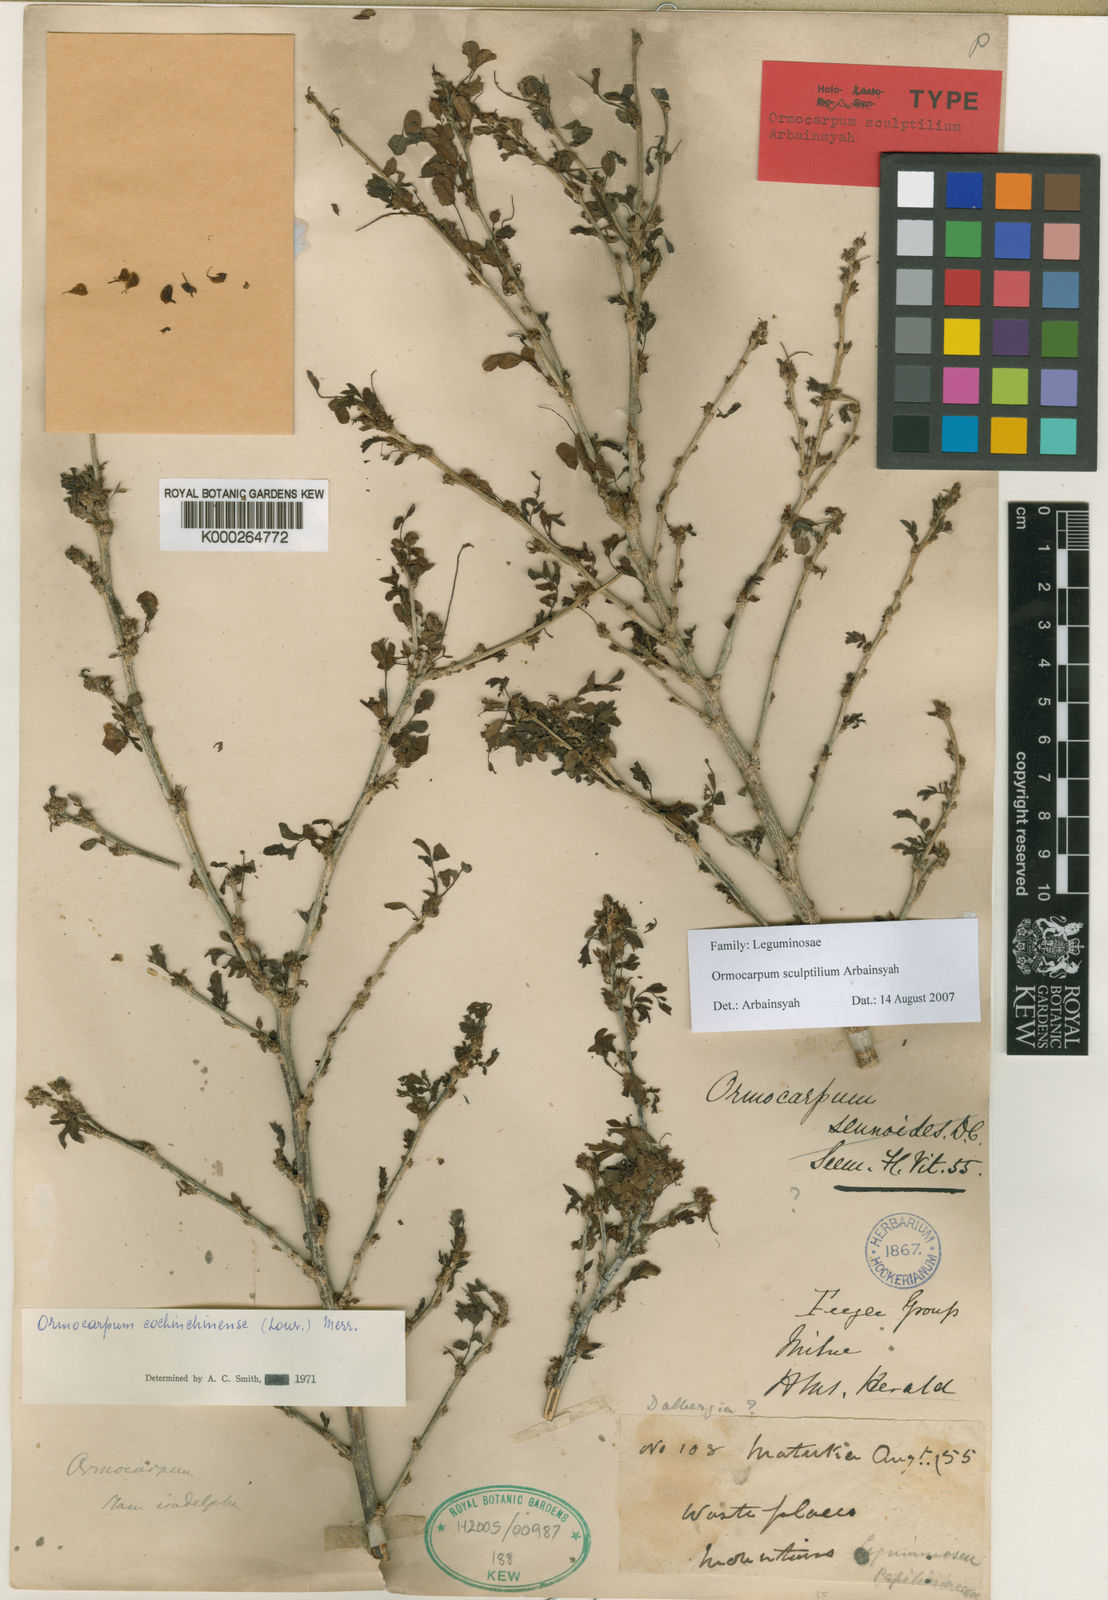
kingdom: Plantae
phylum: Tracheophyta
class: Magnoliopsida
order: Fabales
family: Fabaceae
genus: Ormocarpum
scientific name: Ormocarpum cochinchinense
